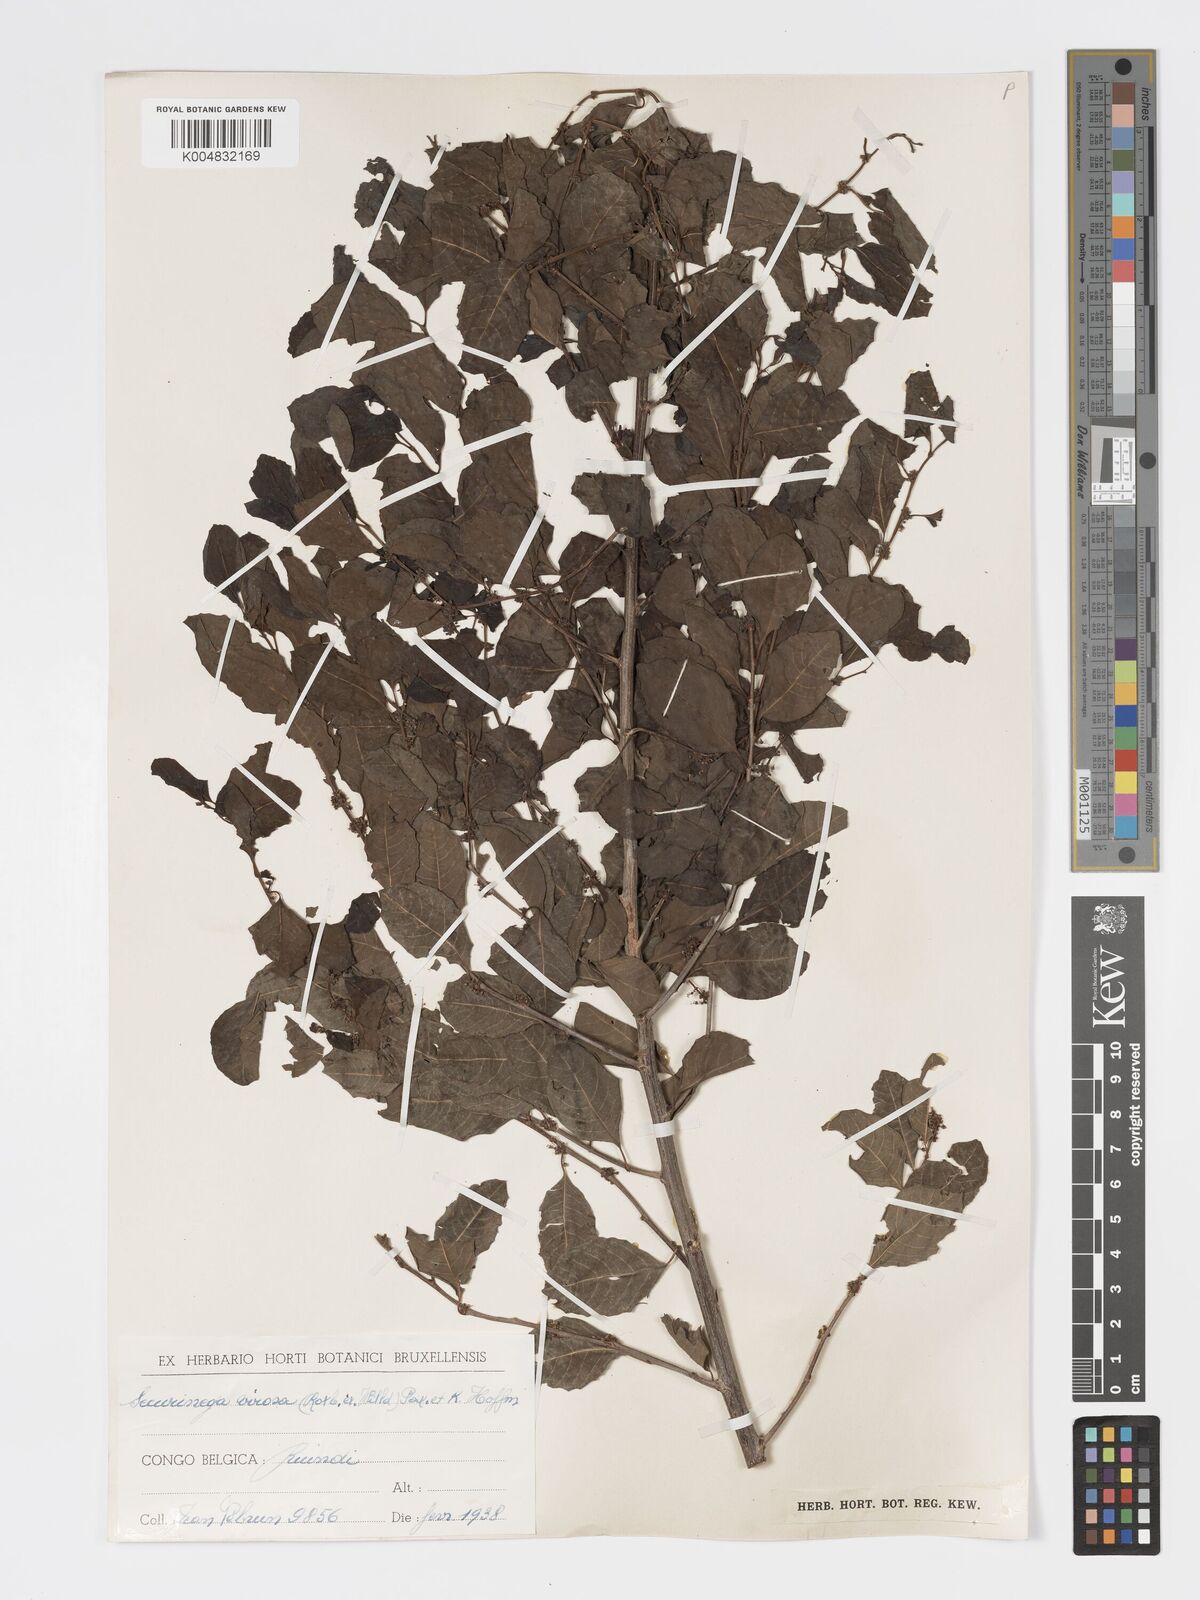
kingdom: Plantae
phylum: Tracheophyta
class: Magnoliopsida
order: Malpighiales
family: Phyllanthaceae
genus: Flueggea
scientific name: Flueggea virosa
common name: Common bushweed
